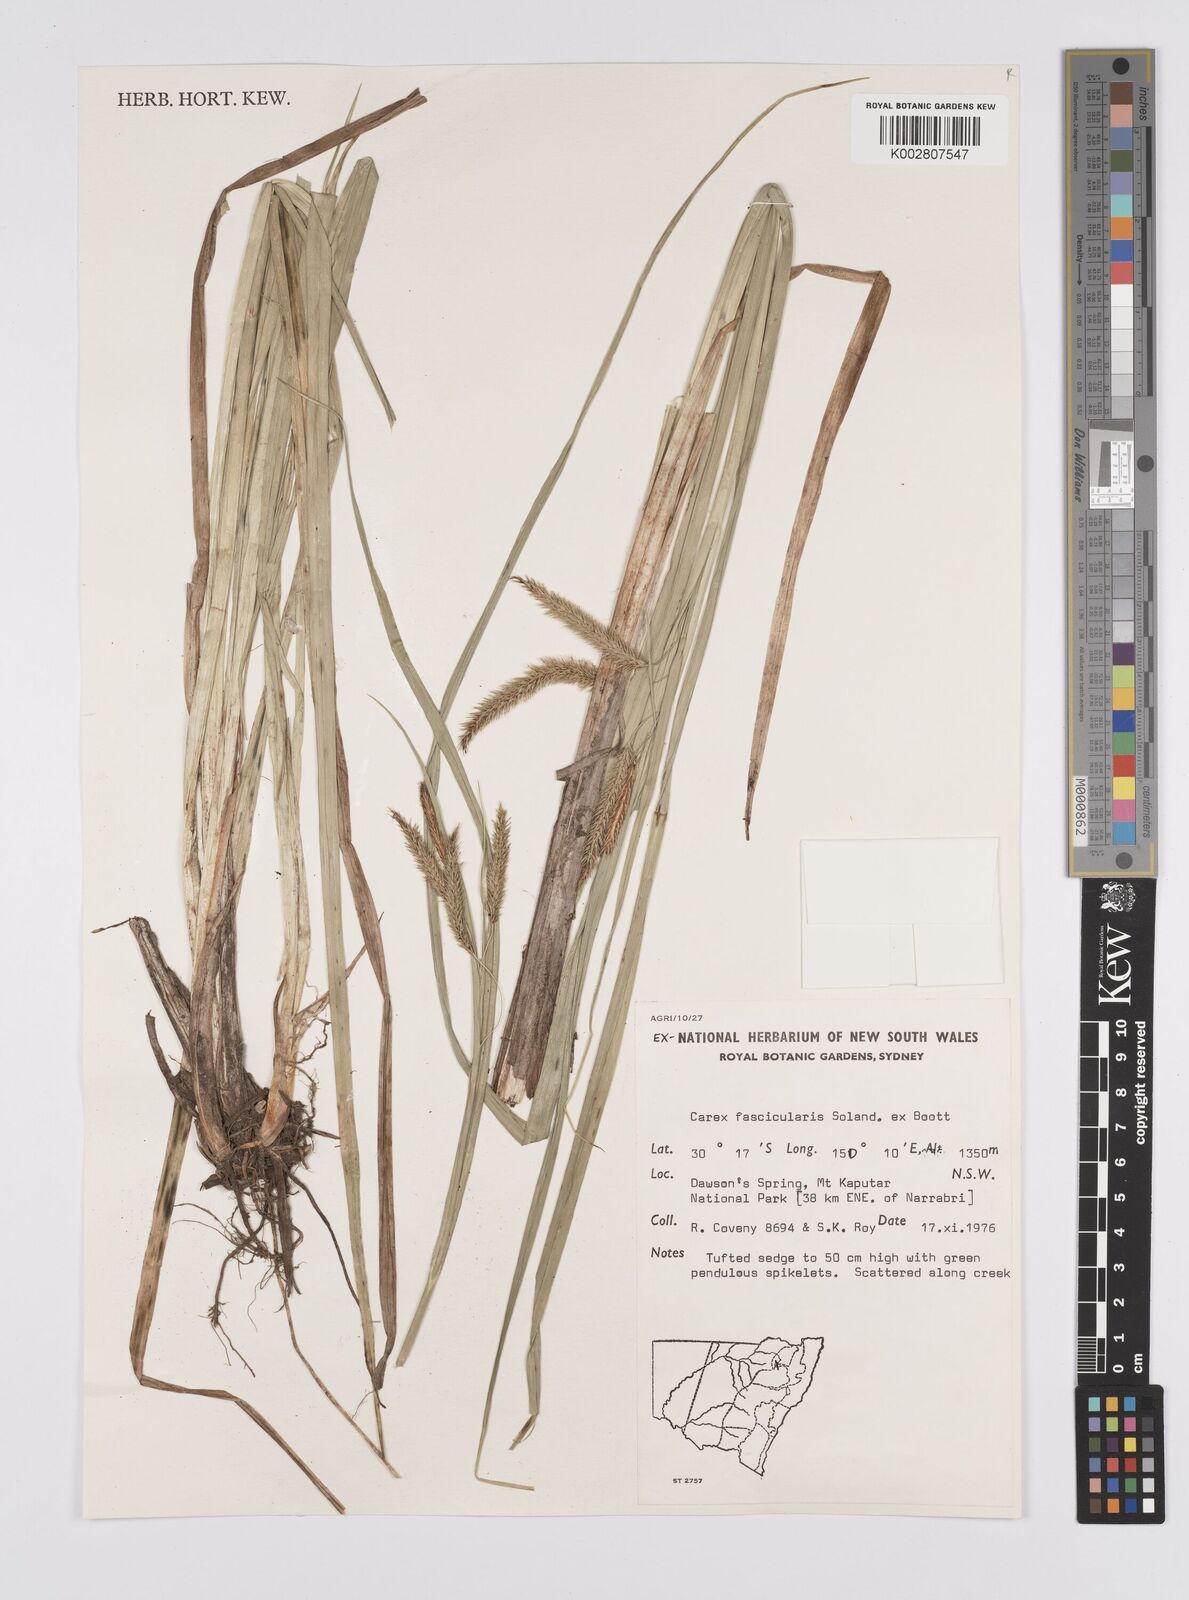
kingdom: Plantae
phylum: Tracheophyta
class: Liliopsida
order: Poales
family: Cyperaceae
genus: Carex
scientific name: Carex fascicularis
